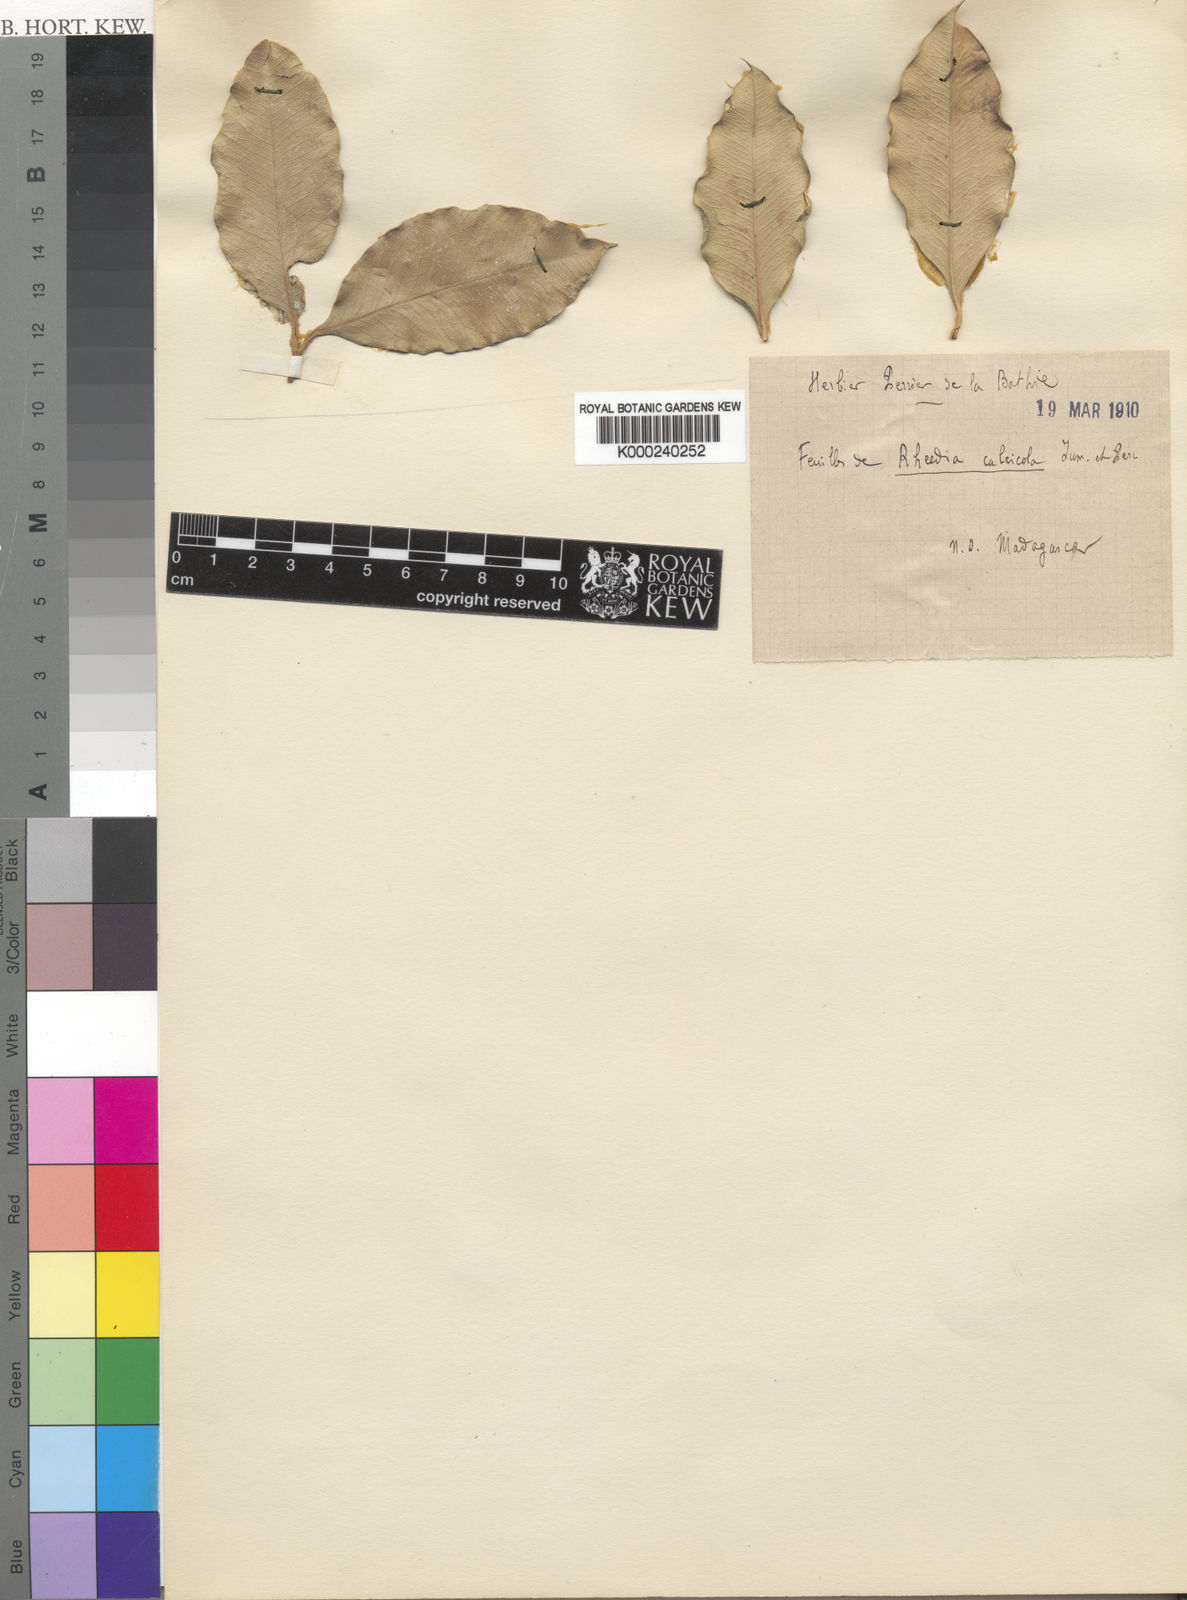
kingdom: Plantae
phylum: Tracheophyta
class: Magnoliopsida
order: Malpighiales
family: Clusiaceae
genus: Garcinia
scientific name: Garcinia calcicola
